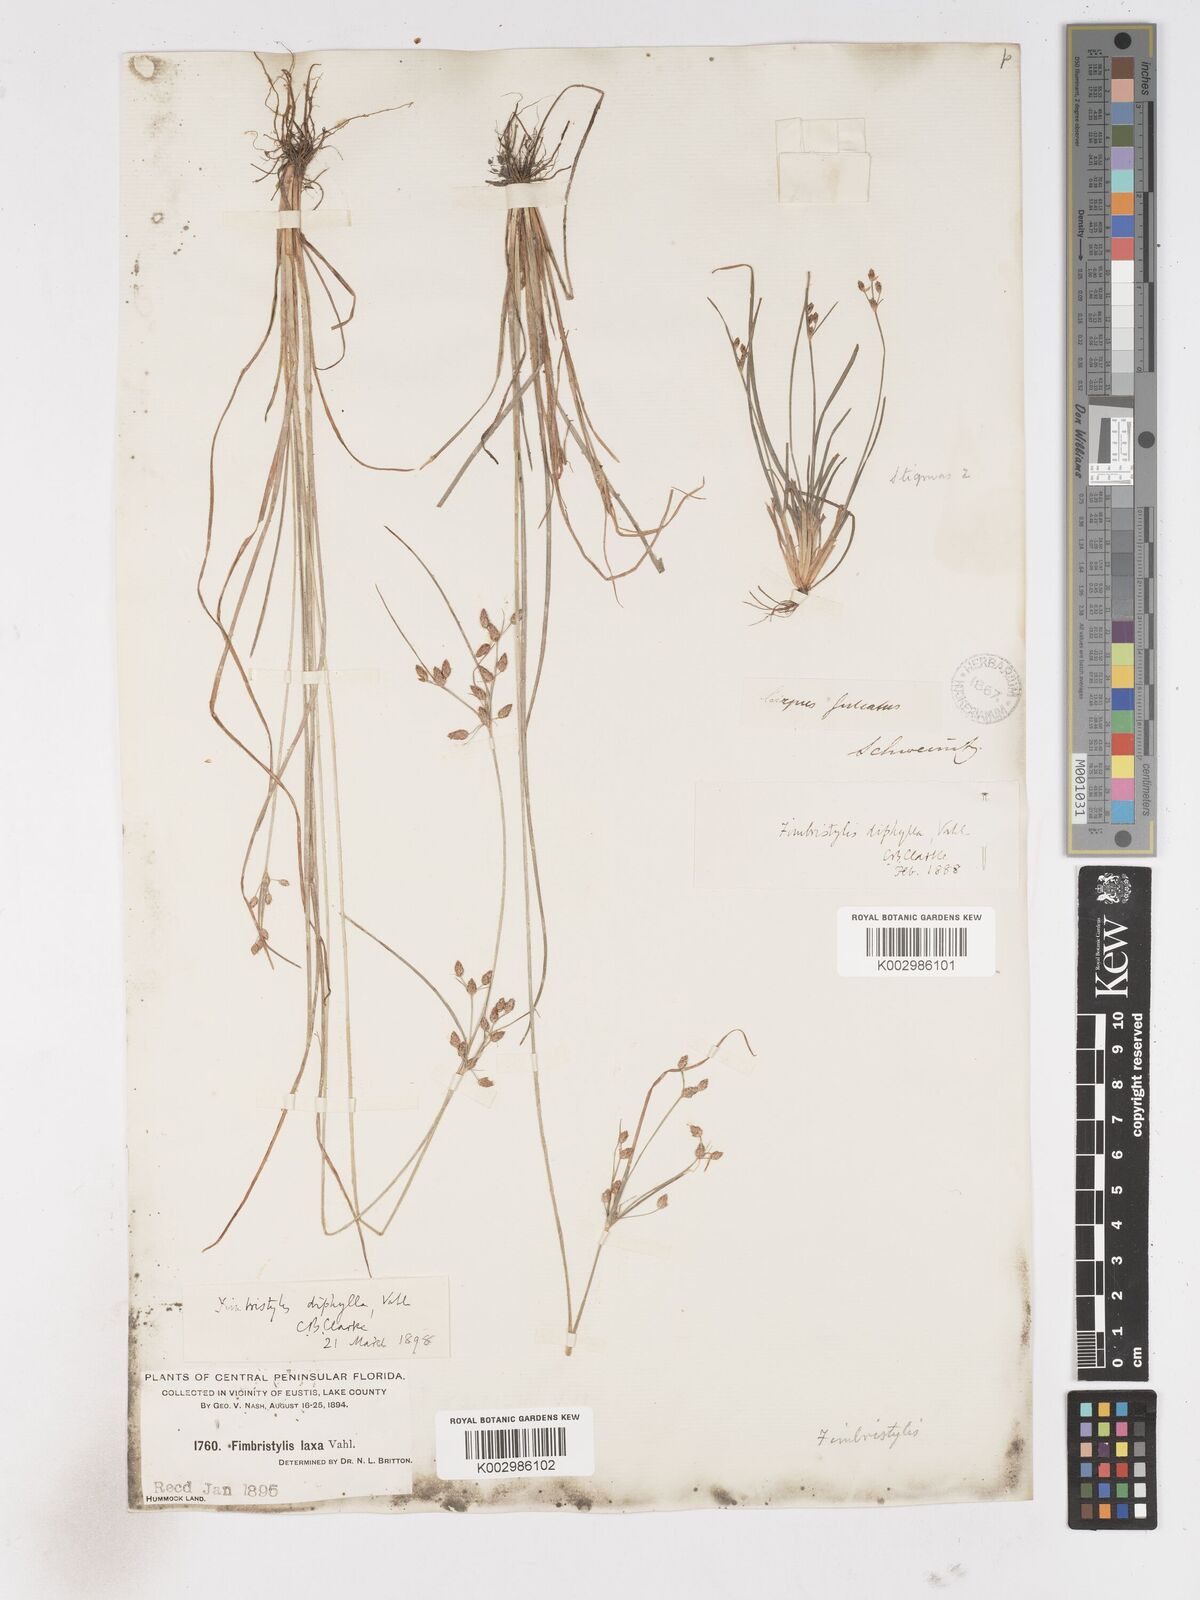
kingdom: Plantae
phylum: Tracheophyta
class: Liliopsida
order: Poales
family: Cyperaceae
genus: Fimbristylis
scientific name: Fimbristylis dichotoma
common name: Forked fimbry
